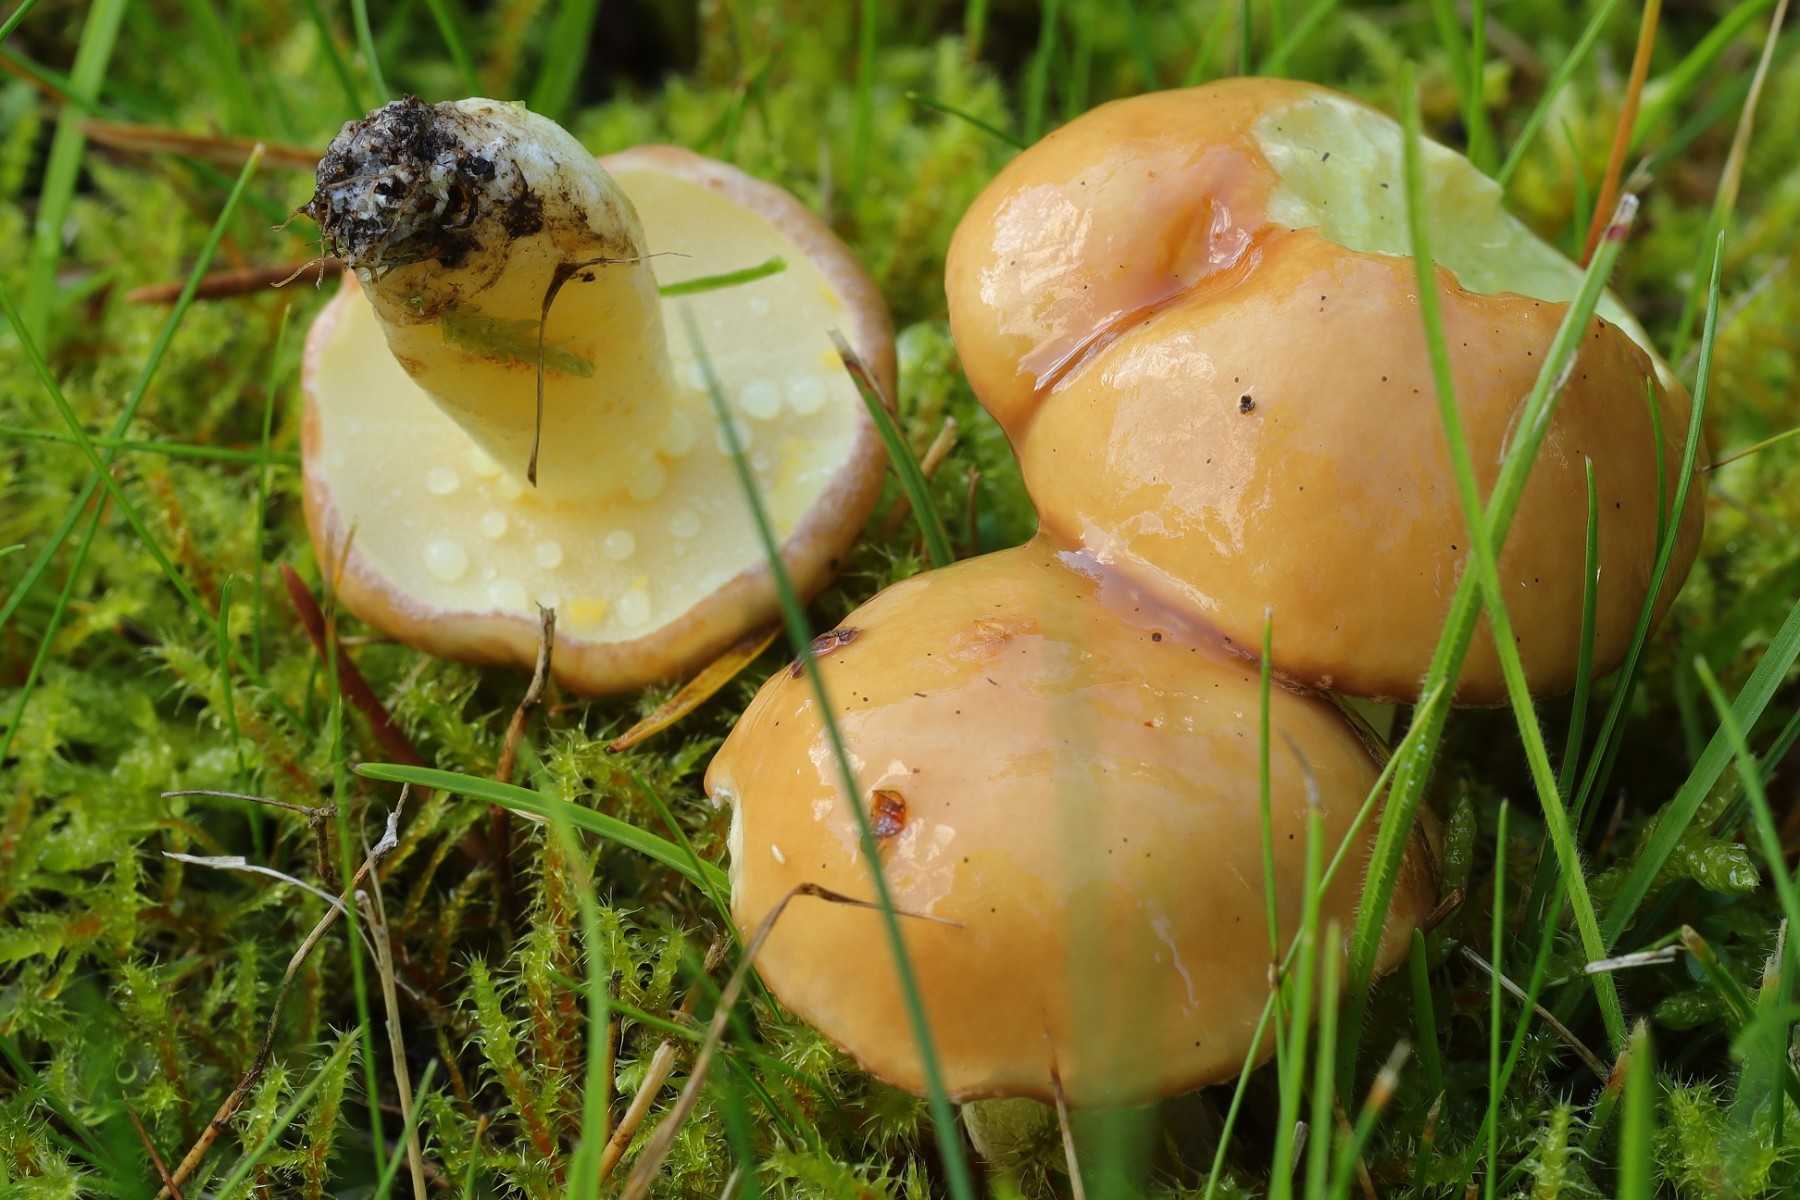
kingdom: Fungi
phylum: Basidiomycota
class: Agaricomycetes
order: Boletales
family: Suillaceae
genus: Suillus
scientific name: Suillus granulatus
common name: kornet slimrørhat
